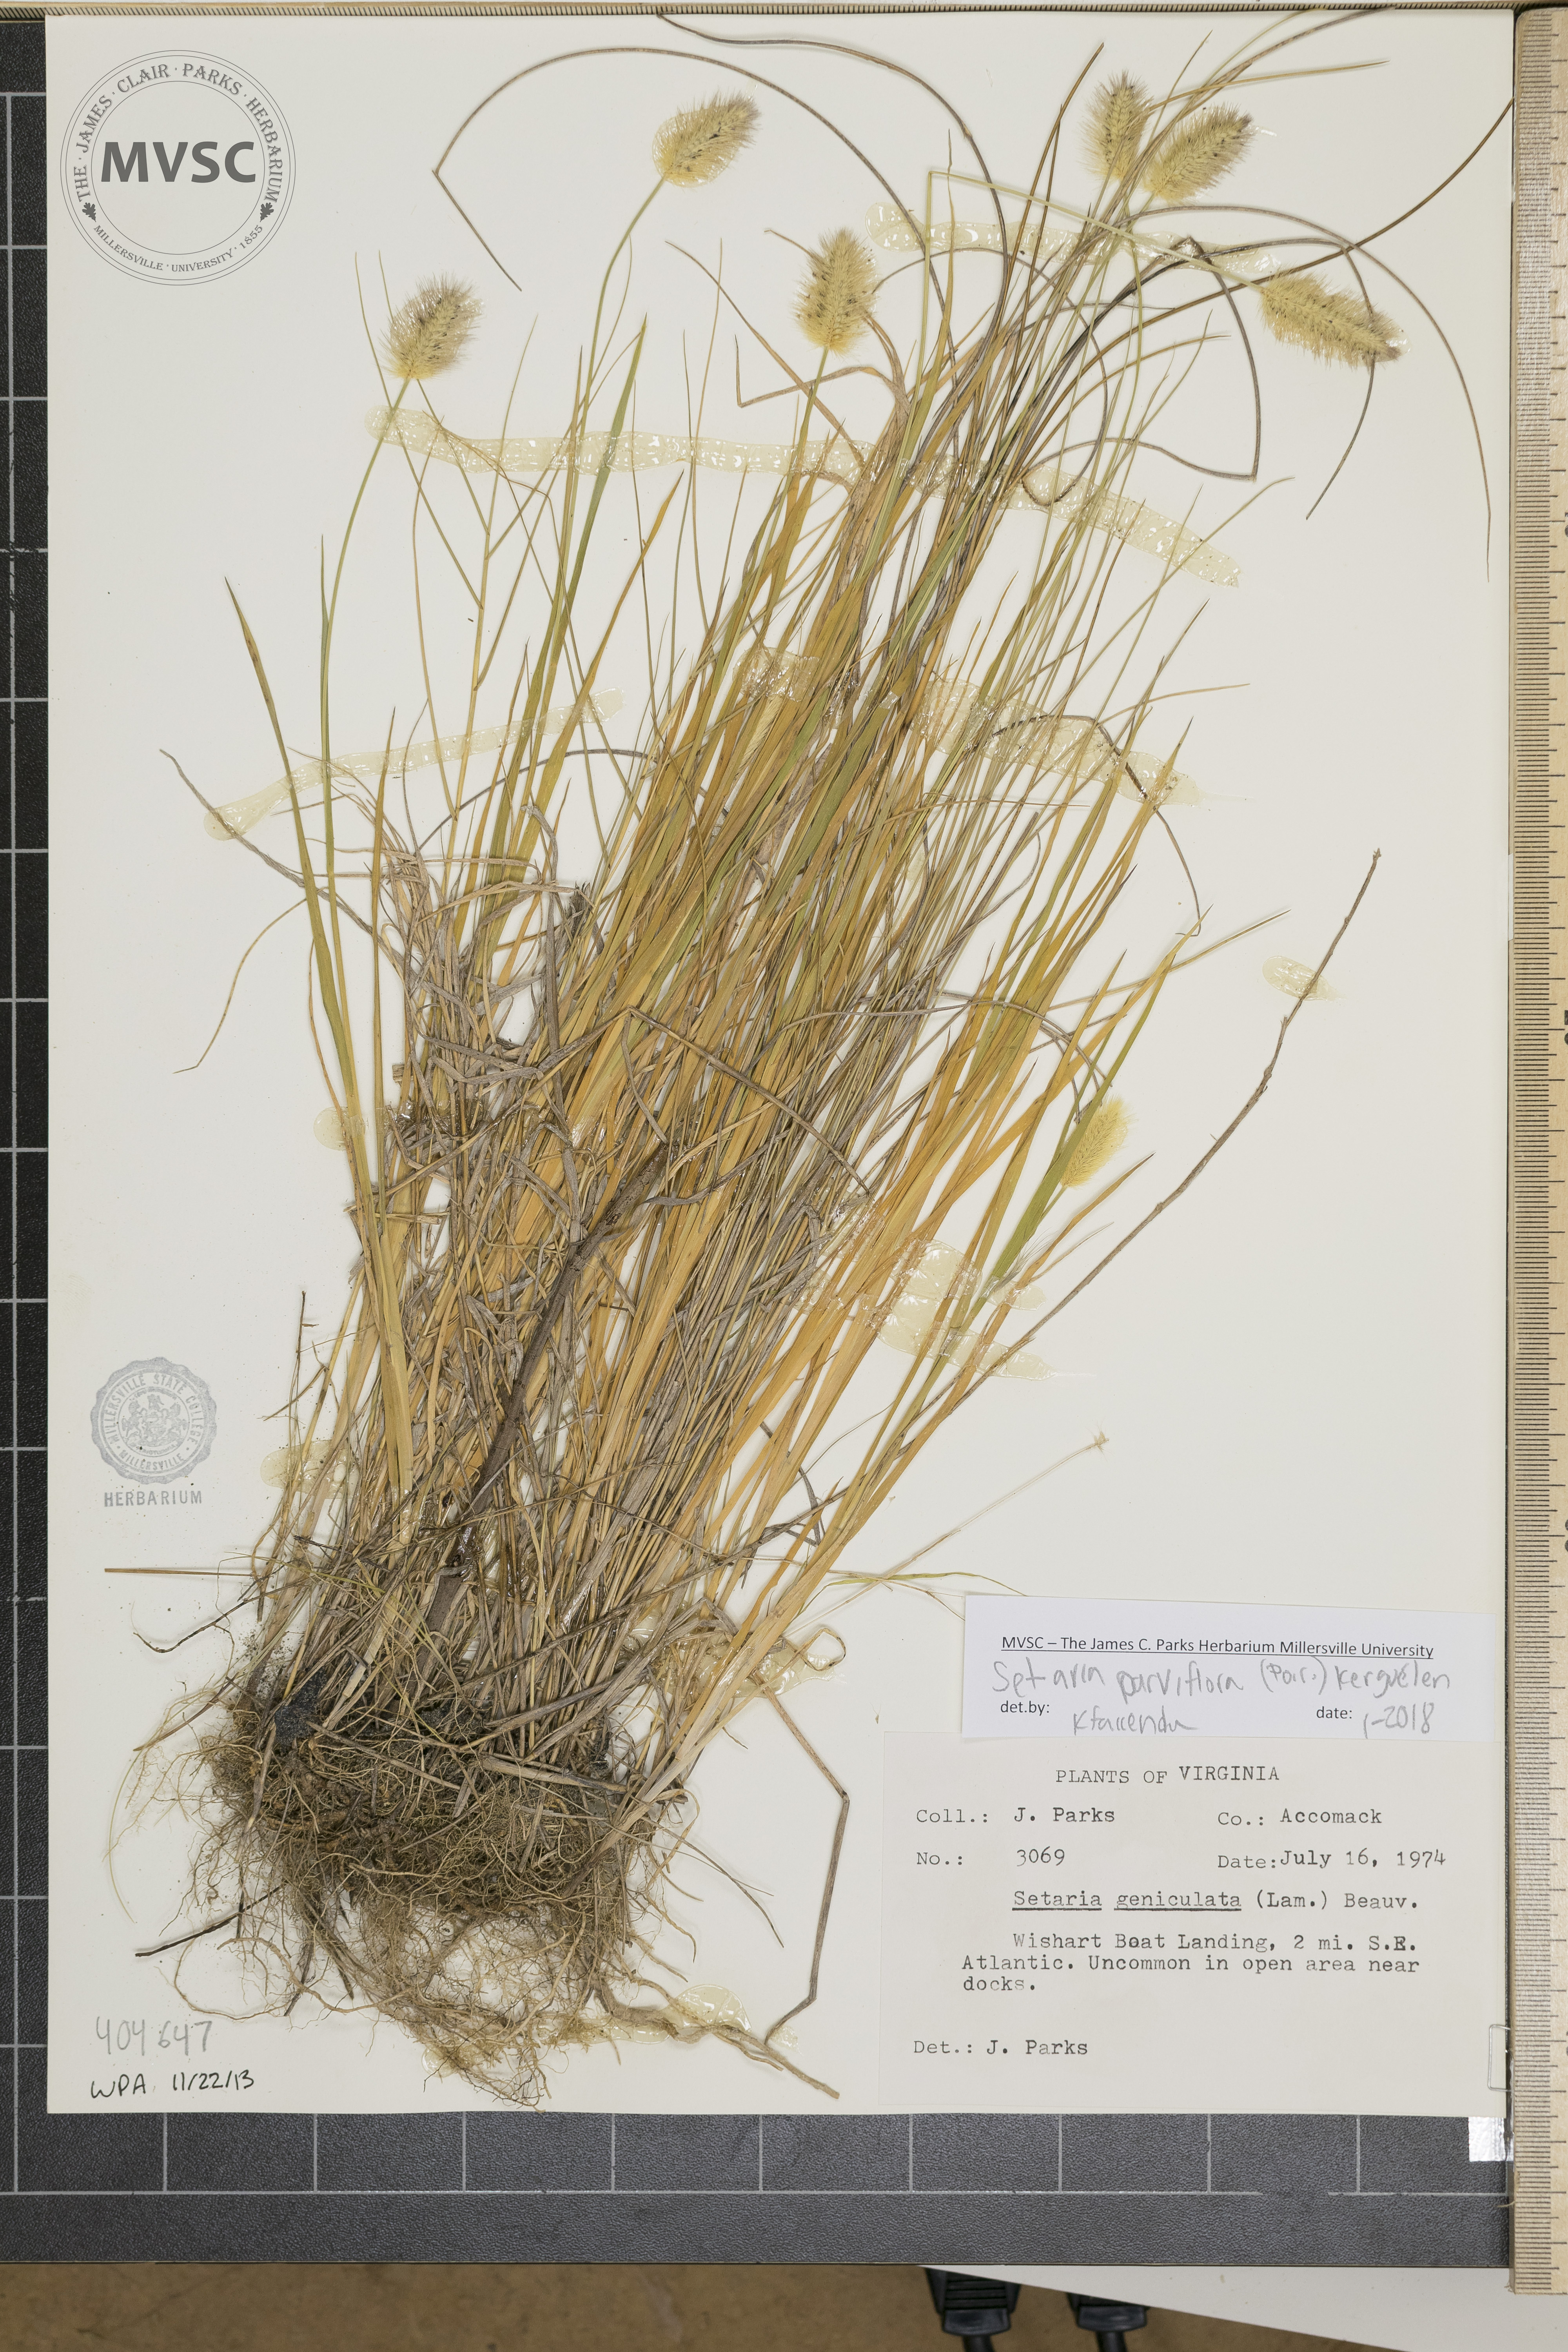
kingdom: Plantae
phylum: Tracheophyta
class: Liliopsida
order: Poales
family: Poaceae
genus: Setaria
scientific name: Setaria parviflora
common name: Knotroot bristle-grass
